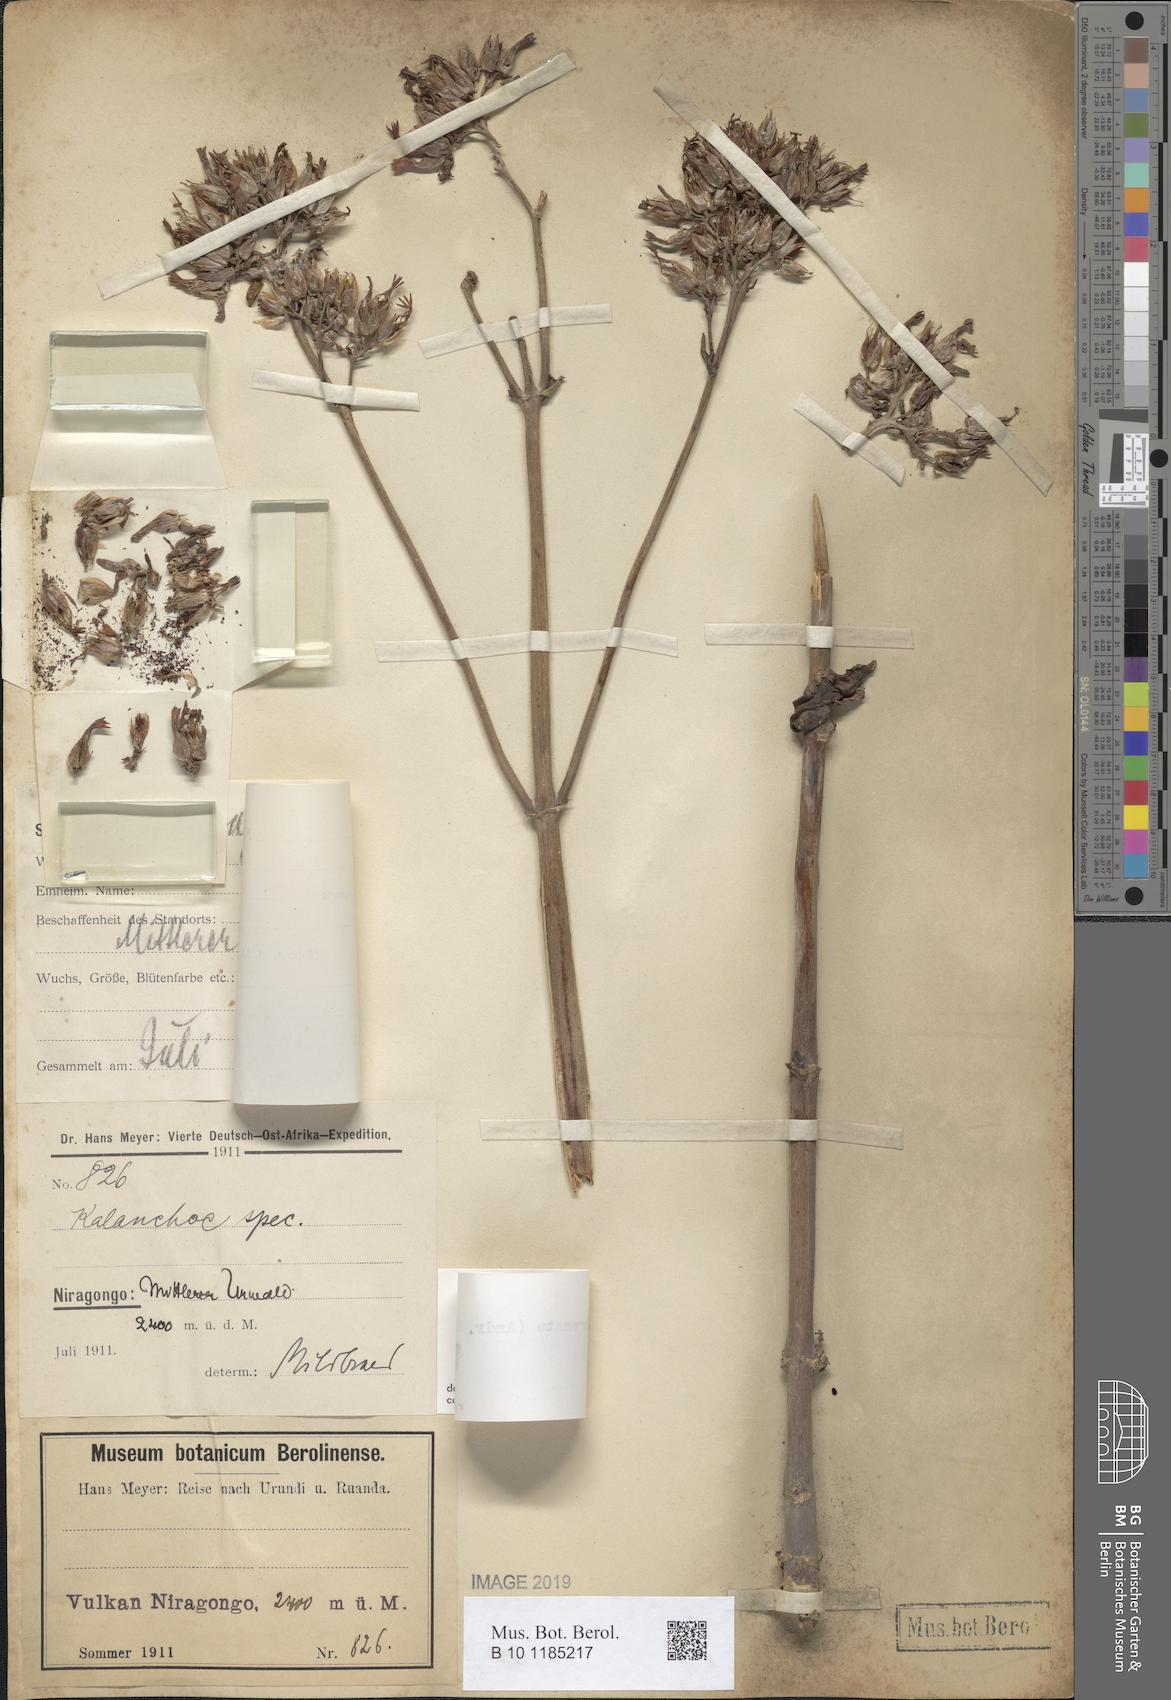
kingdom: Plantae
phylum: Tracheophyta
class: Magnoliopsida
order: Saxifragales
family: Crassulaceae
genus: Kalanchoe
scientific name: Kalanchoe crenata
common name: Neverdie
